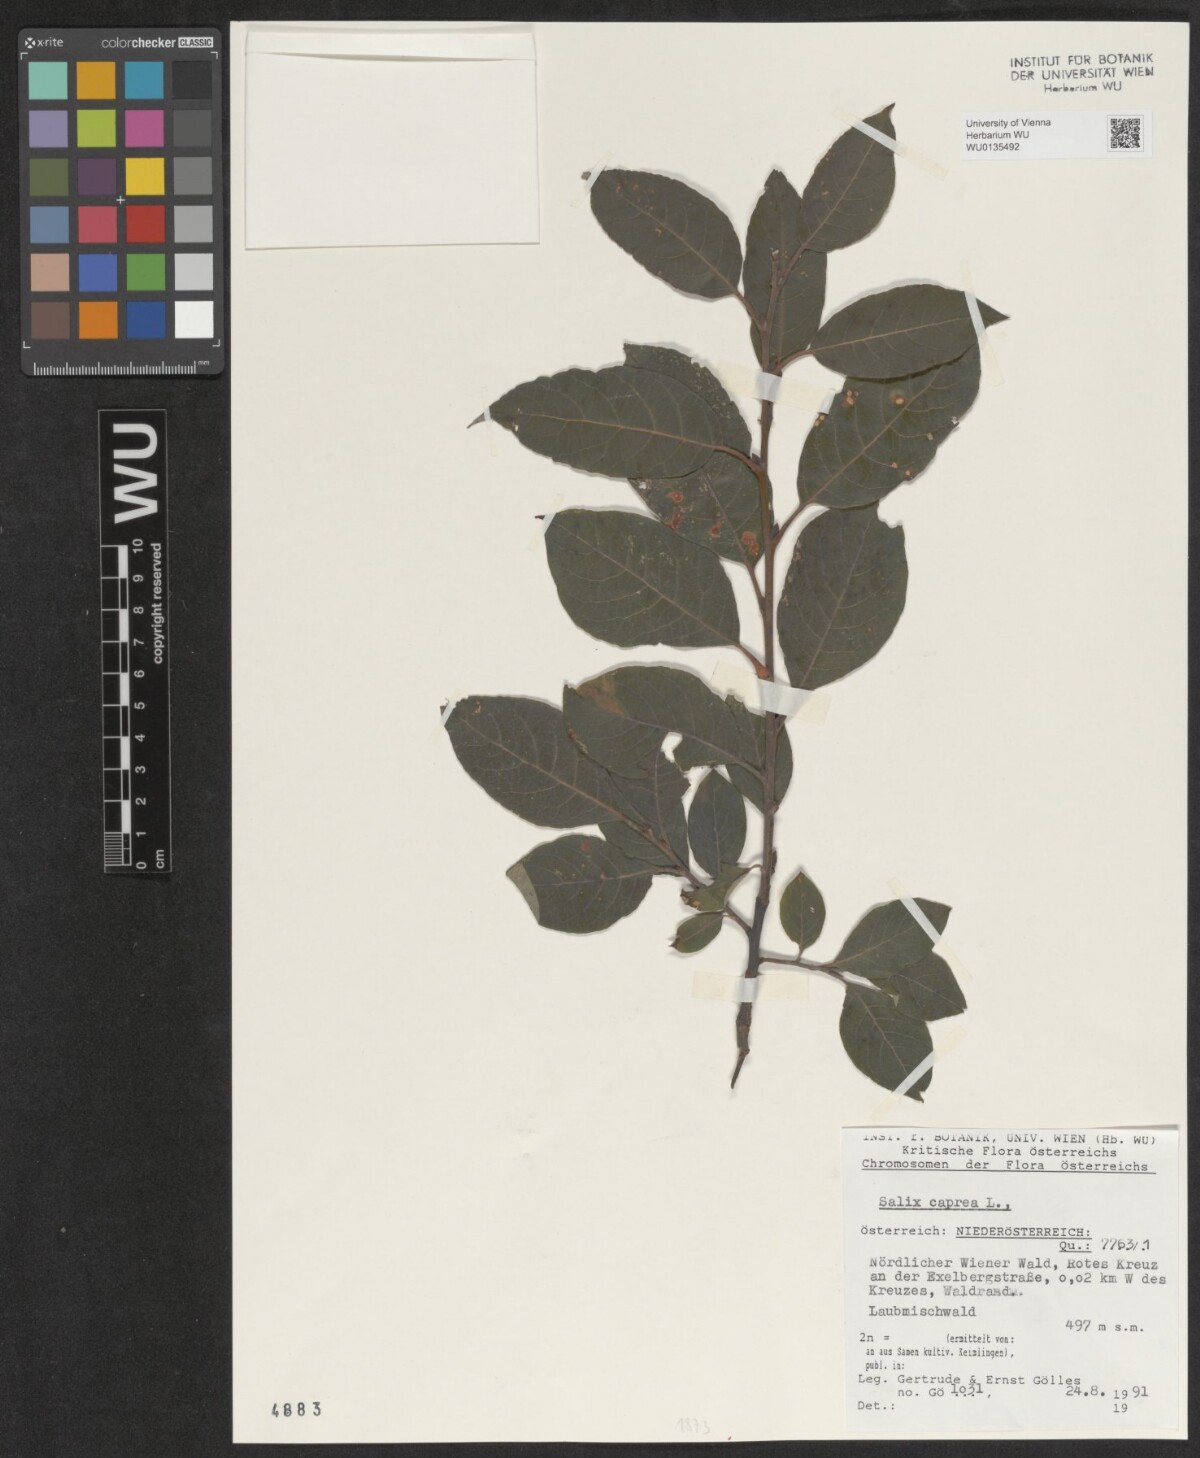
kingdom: Plantae
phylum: Tracheophyta
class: Magnoliopsida
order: Malpighiales
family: Salicaceae
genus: Salix
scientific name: Salix caprea
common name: Goat willow
